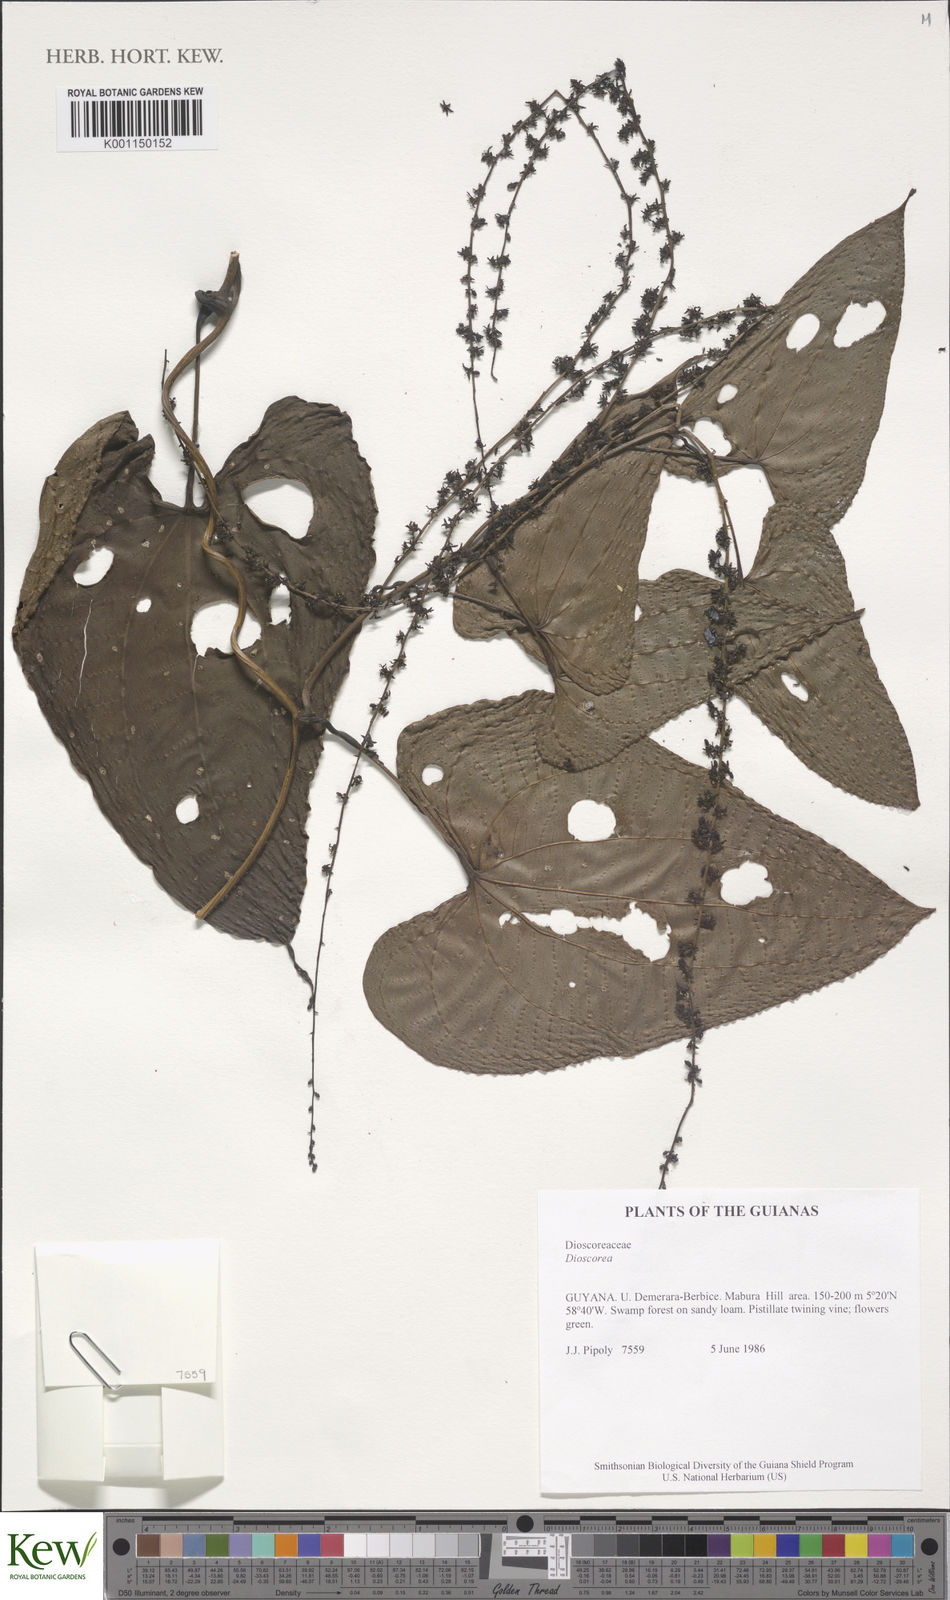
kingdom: Plantae
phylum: Tracheophyta
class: Liliopsida
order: Dioscoreales
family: Dioscoreaceae
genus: Dioscorea
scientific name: Dioscorea trichanthera
